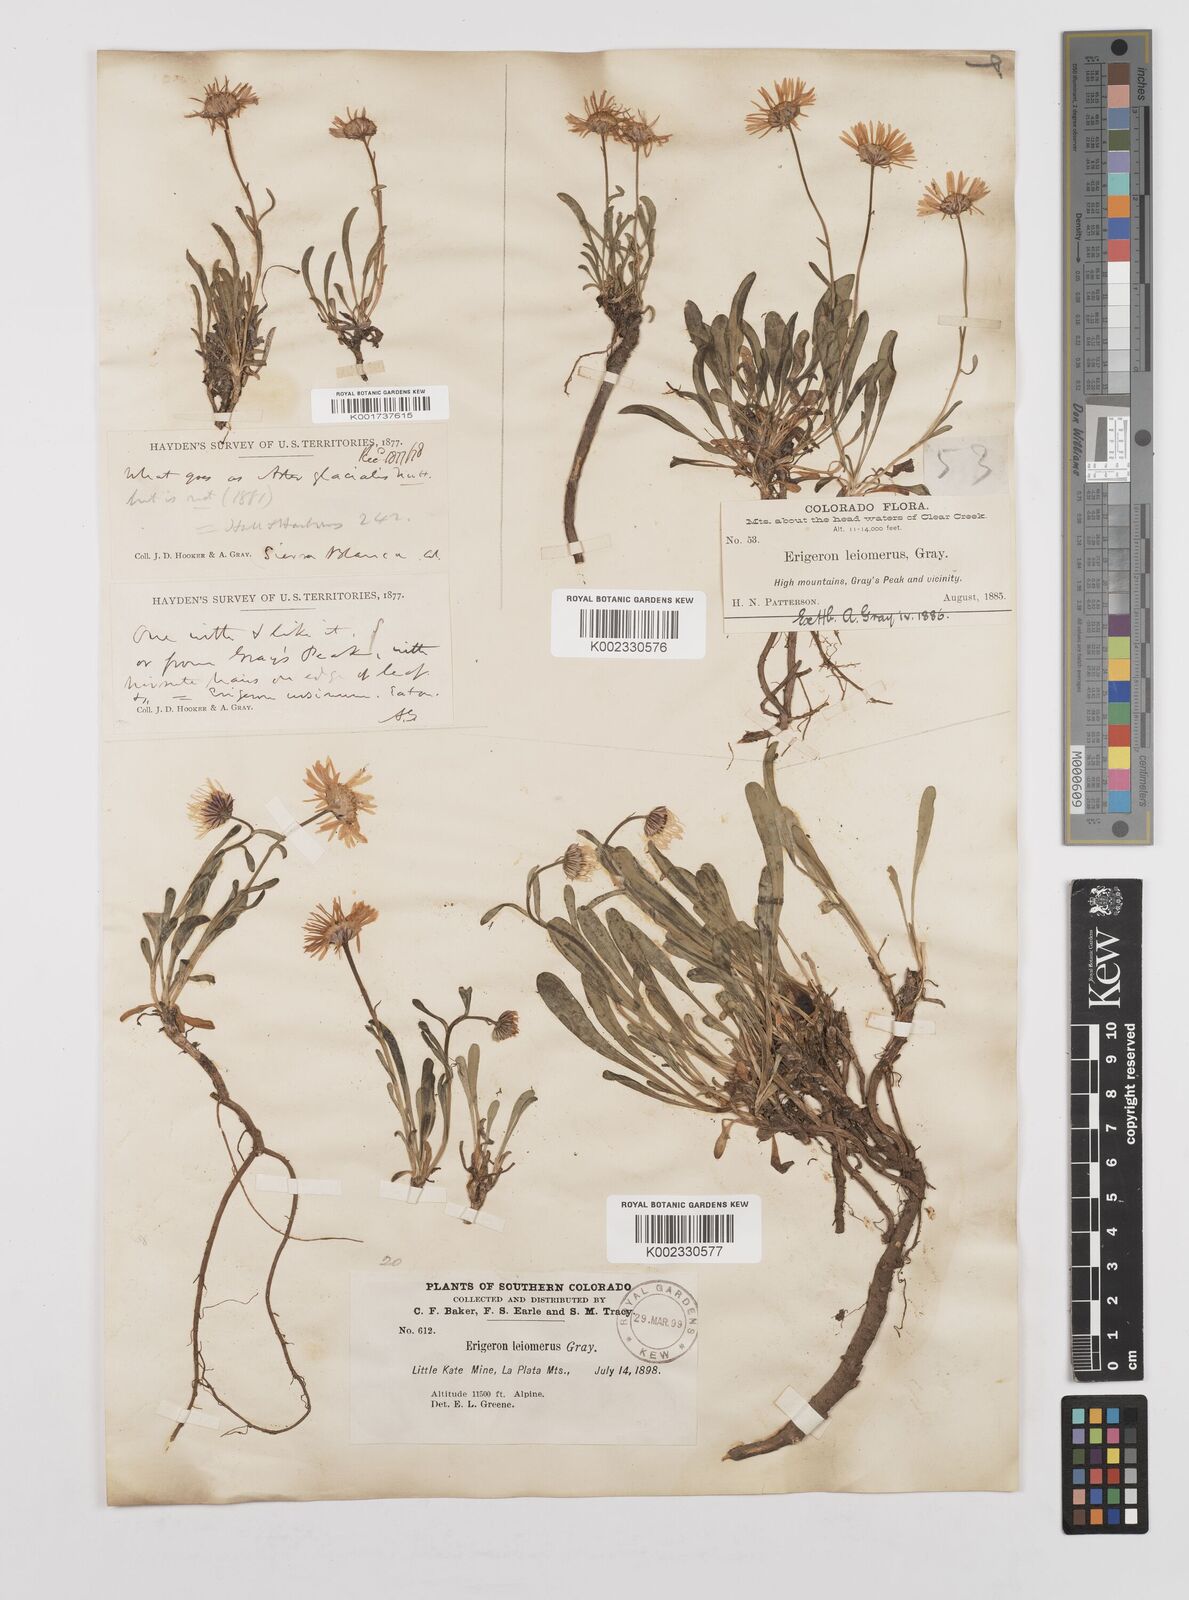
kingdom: Plantae
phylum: Tracheophyta
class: Magnoliopsida
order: Asterales
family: Asteraceae
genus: Erigeron
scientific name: Erigeron leiomerus
